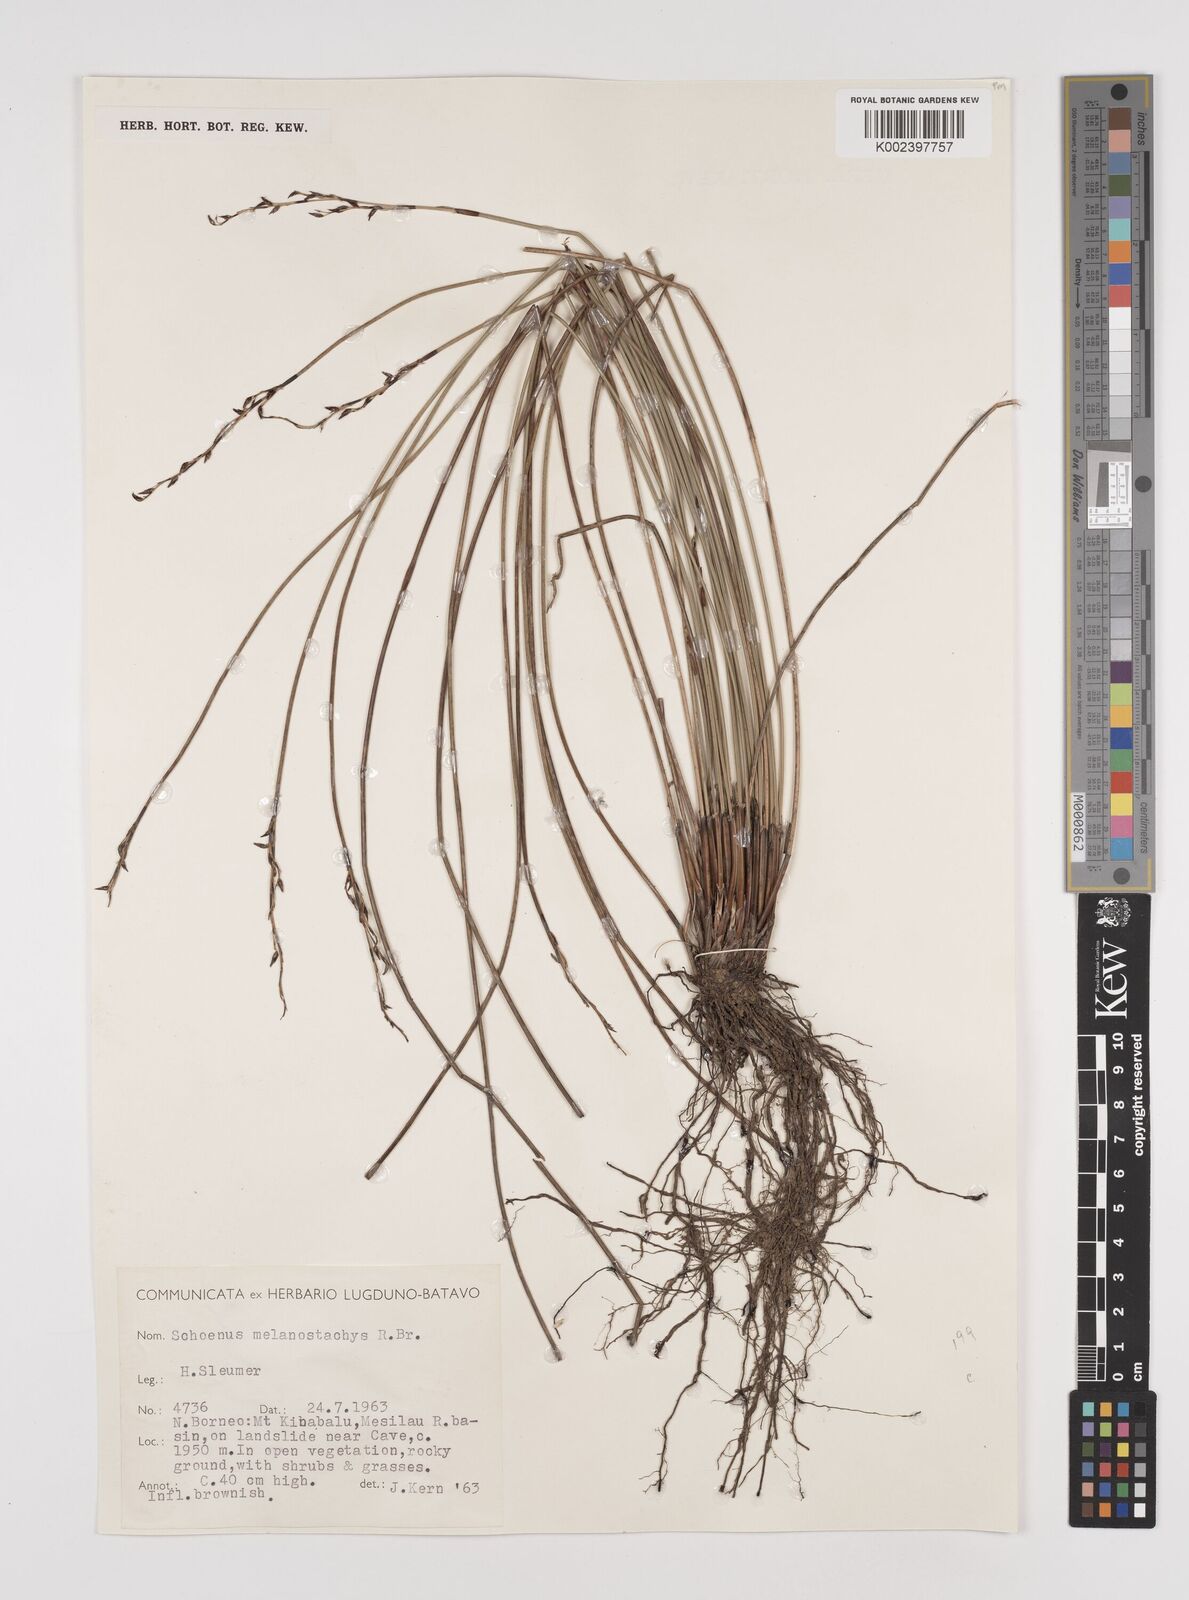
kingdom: Plantae
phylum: Tracheophyta
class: Liliopsida
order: Poales
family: Cyperaceae
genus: Schoenus
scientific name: Schoenus melanostachys
